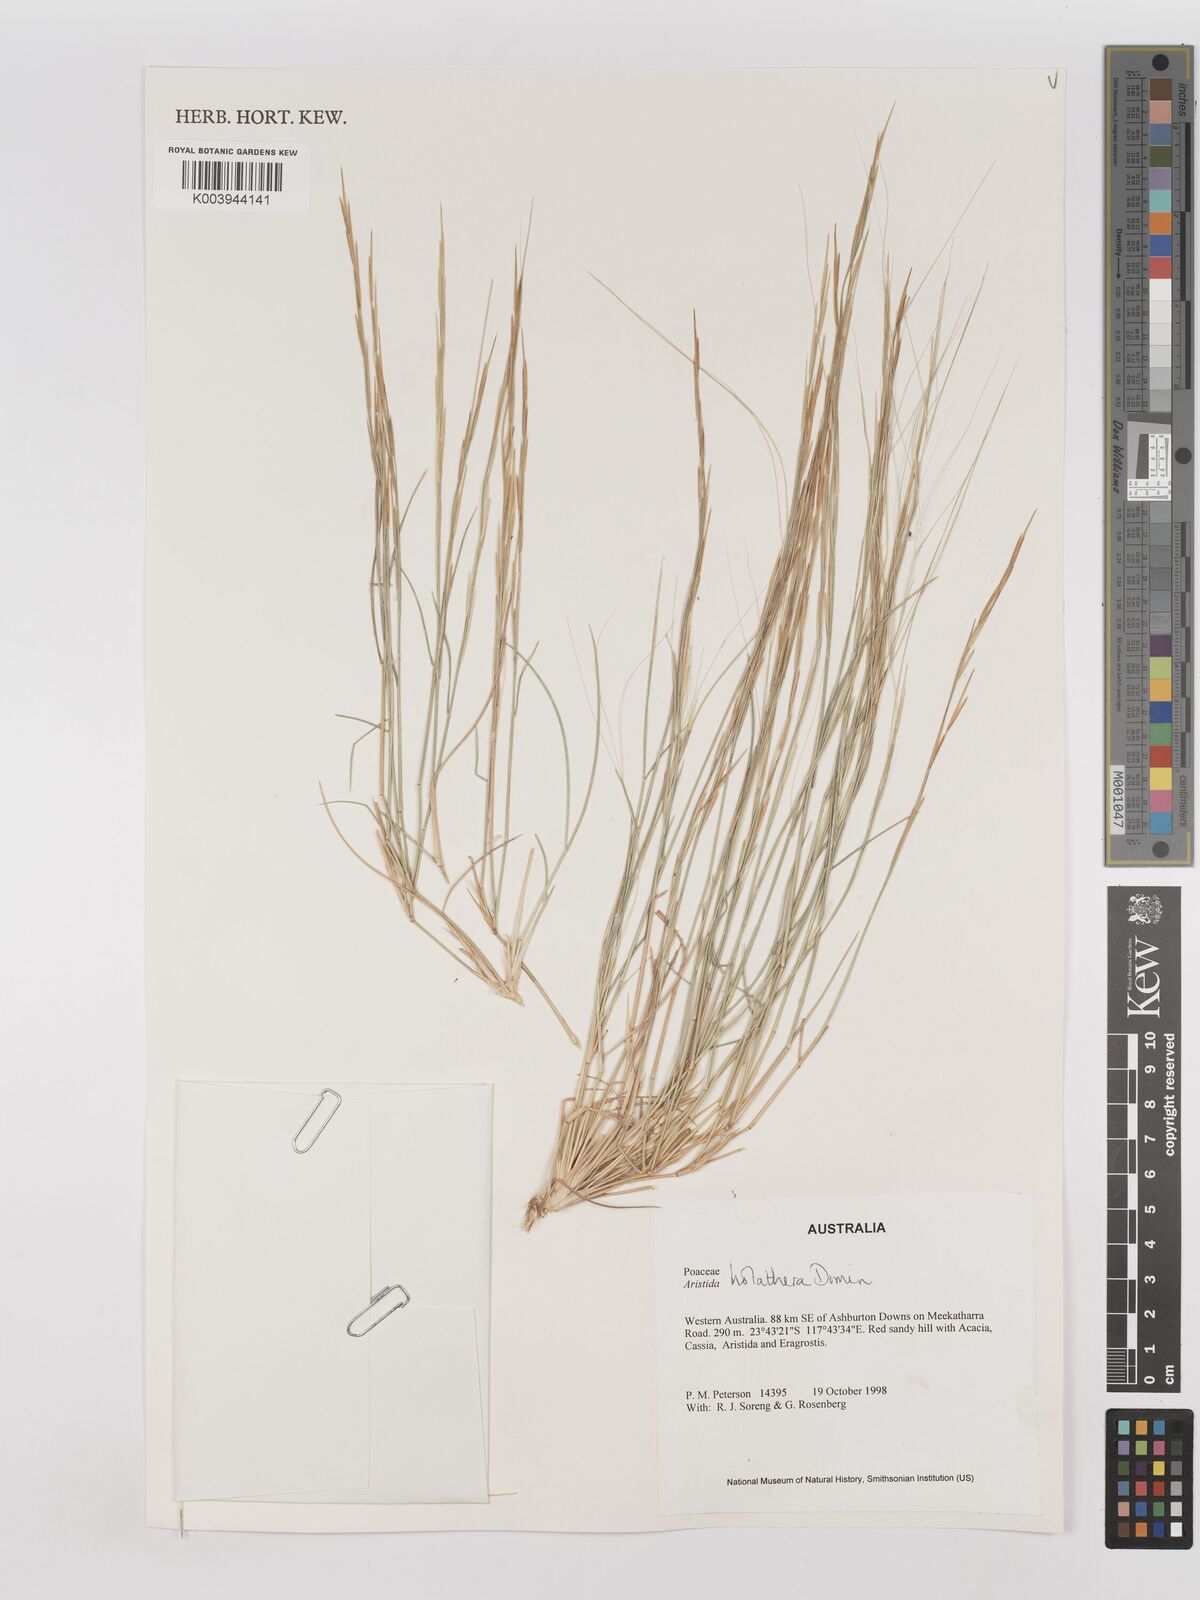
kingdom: Plantae
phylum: Tracheophyta
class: Liliopsida
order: Poales
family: Poaceae
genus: Aristida
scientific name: Aristida holathera
